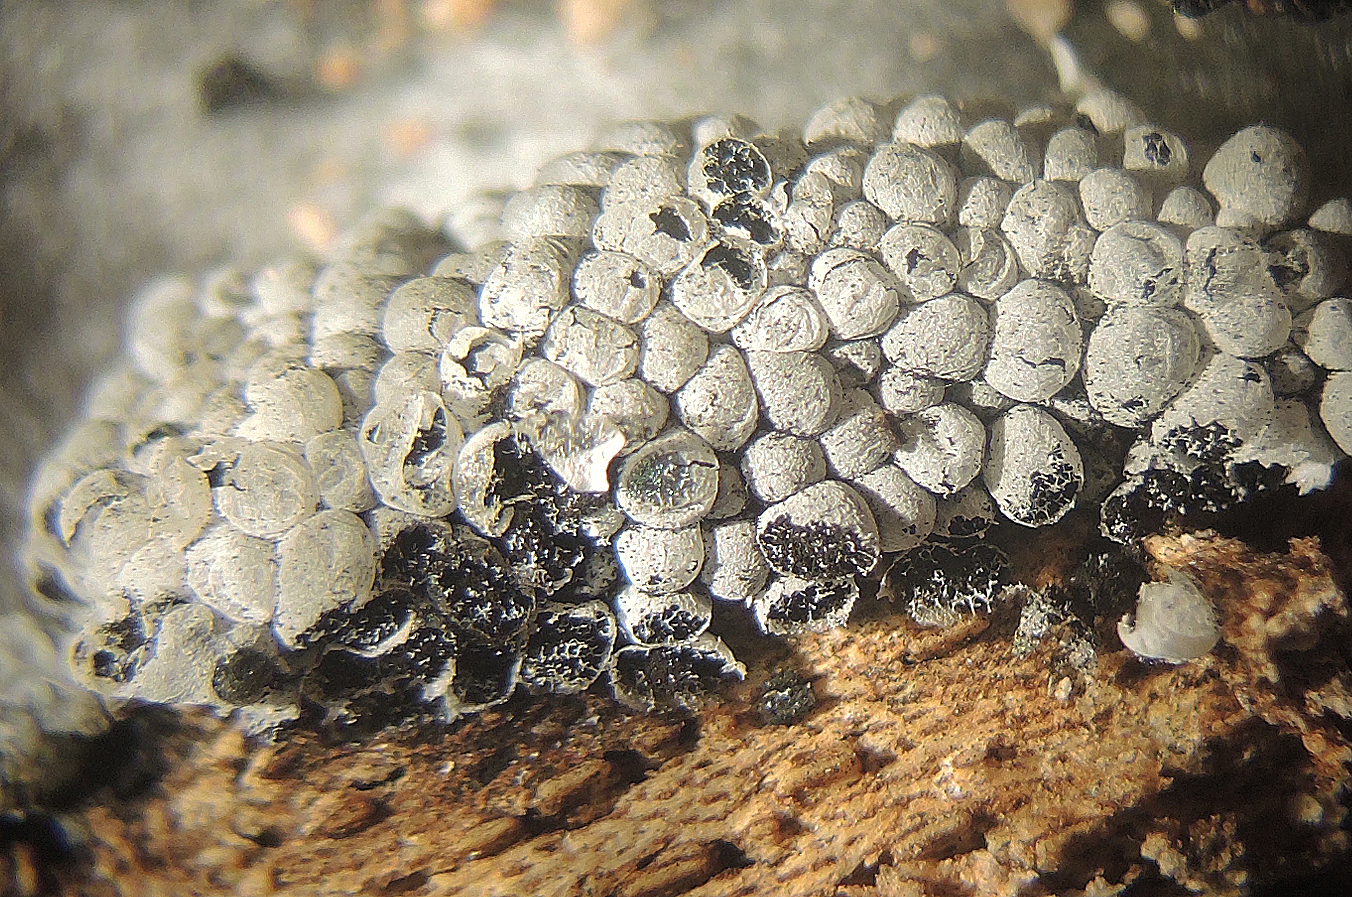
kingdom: Protozoa
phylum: Mycetozoa
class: Myxomycetes
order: Physarales
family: Physaraceae
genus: Badhamia
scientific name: Badhamia utricularis
